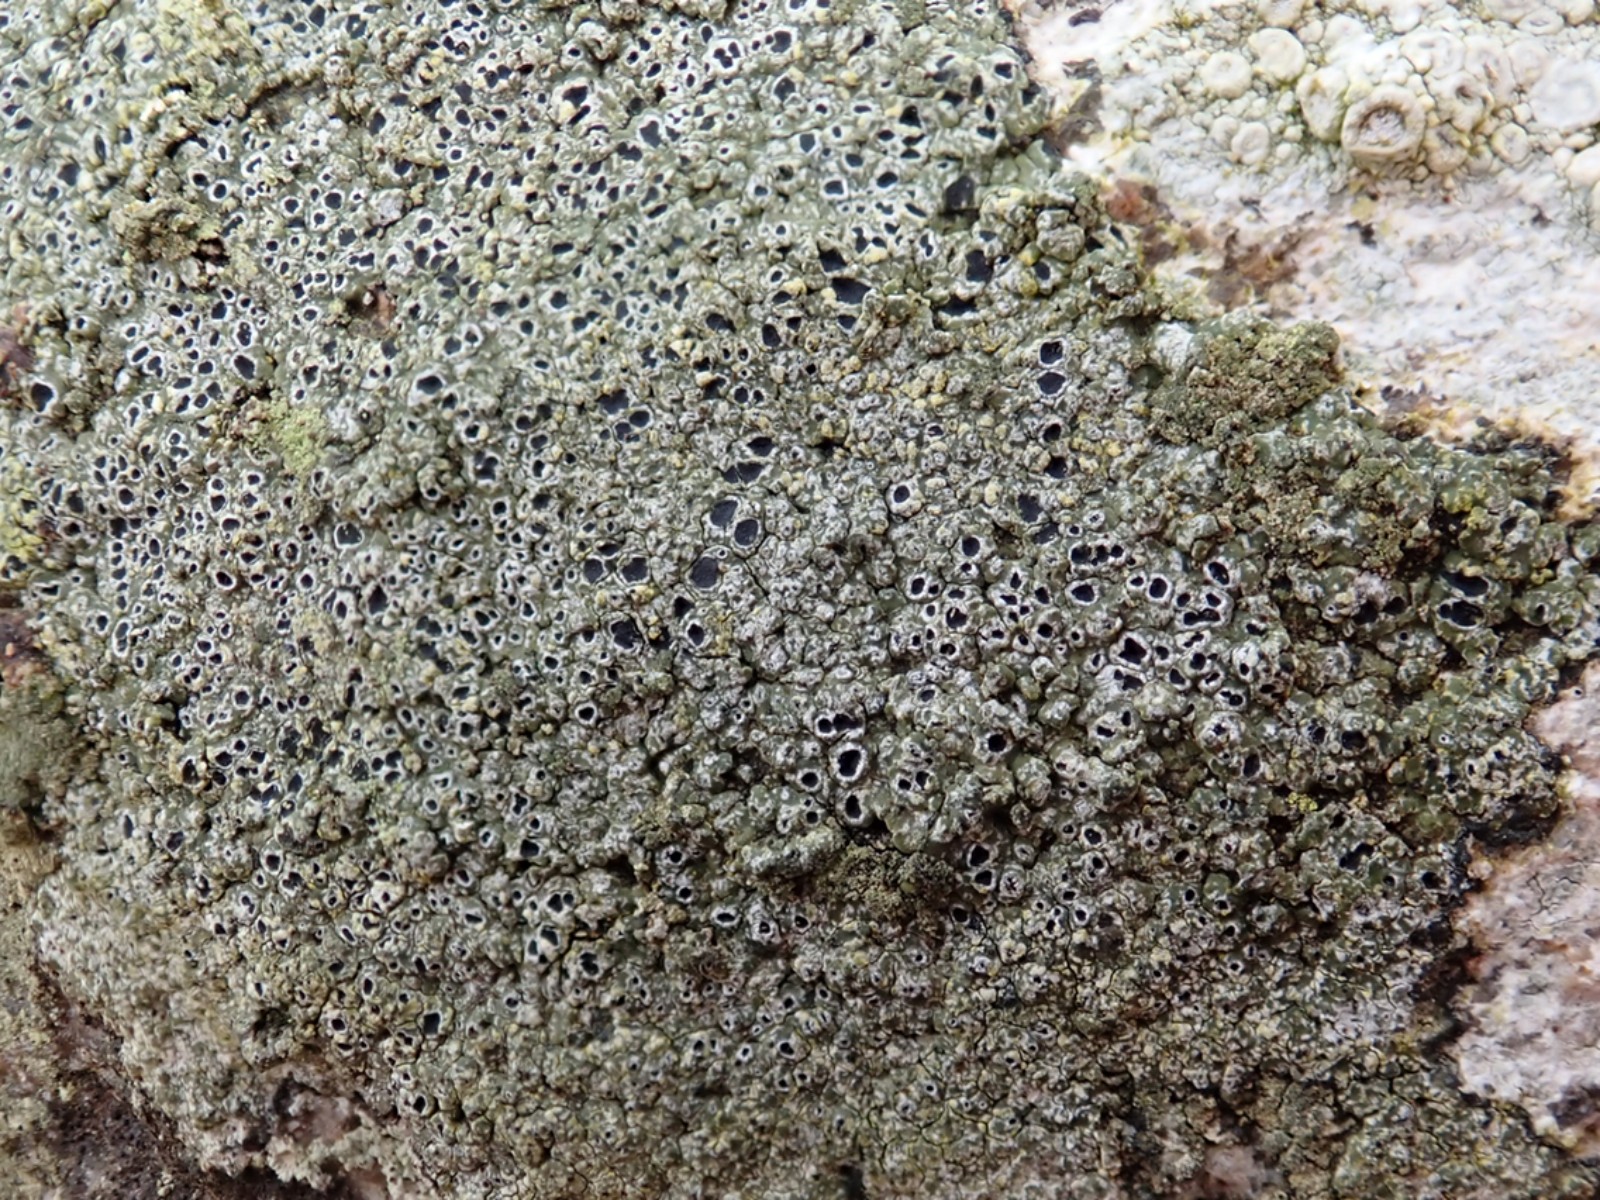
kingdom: Fungi
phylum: Ascomycota
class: Lecanoromycetes
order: Pertusariales
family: Megasporaceae
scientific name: Megasporaceae
